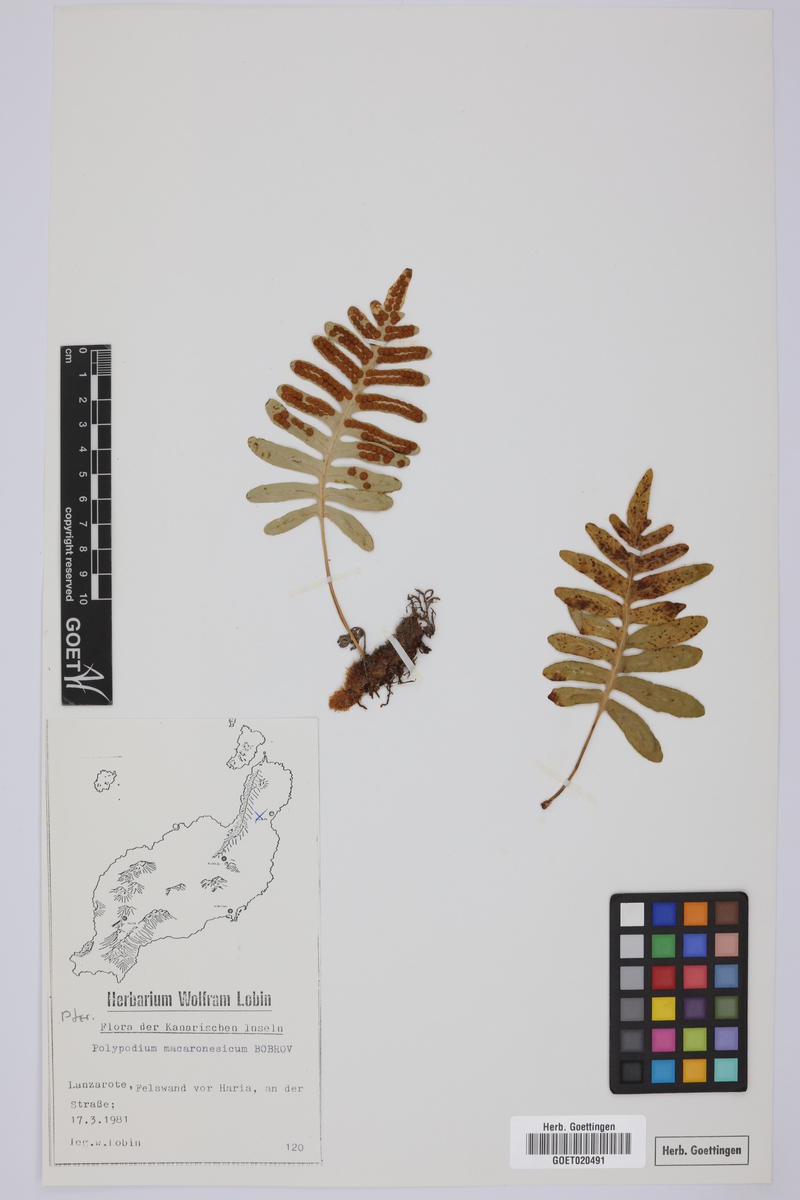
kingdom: Plantae
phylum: Tracheophyta
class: Polypodiopsida
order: Polypodiales
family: Polypodiaceae
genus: Polypodium
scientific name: Polypodium macaronesicum
